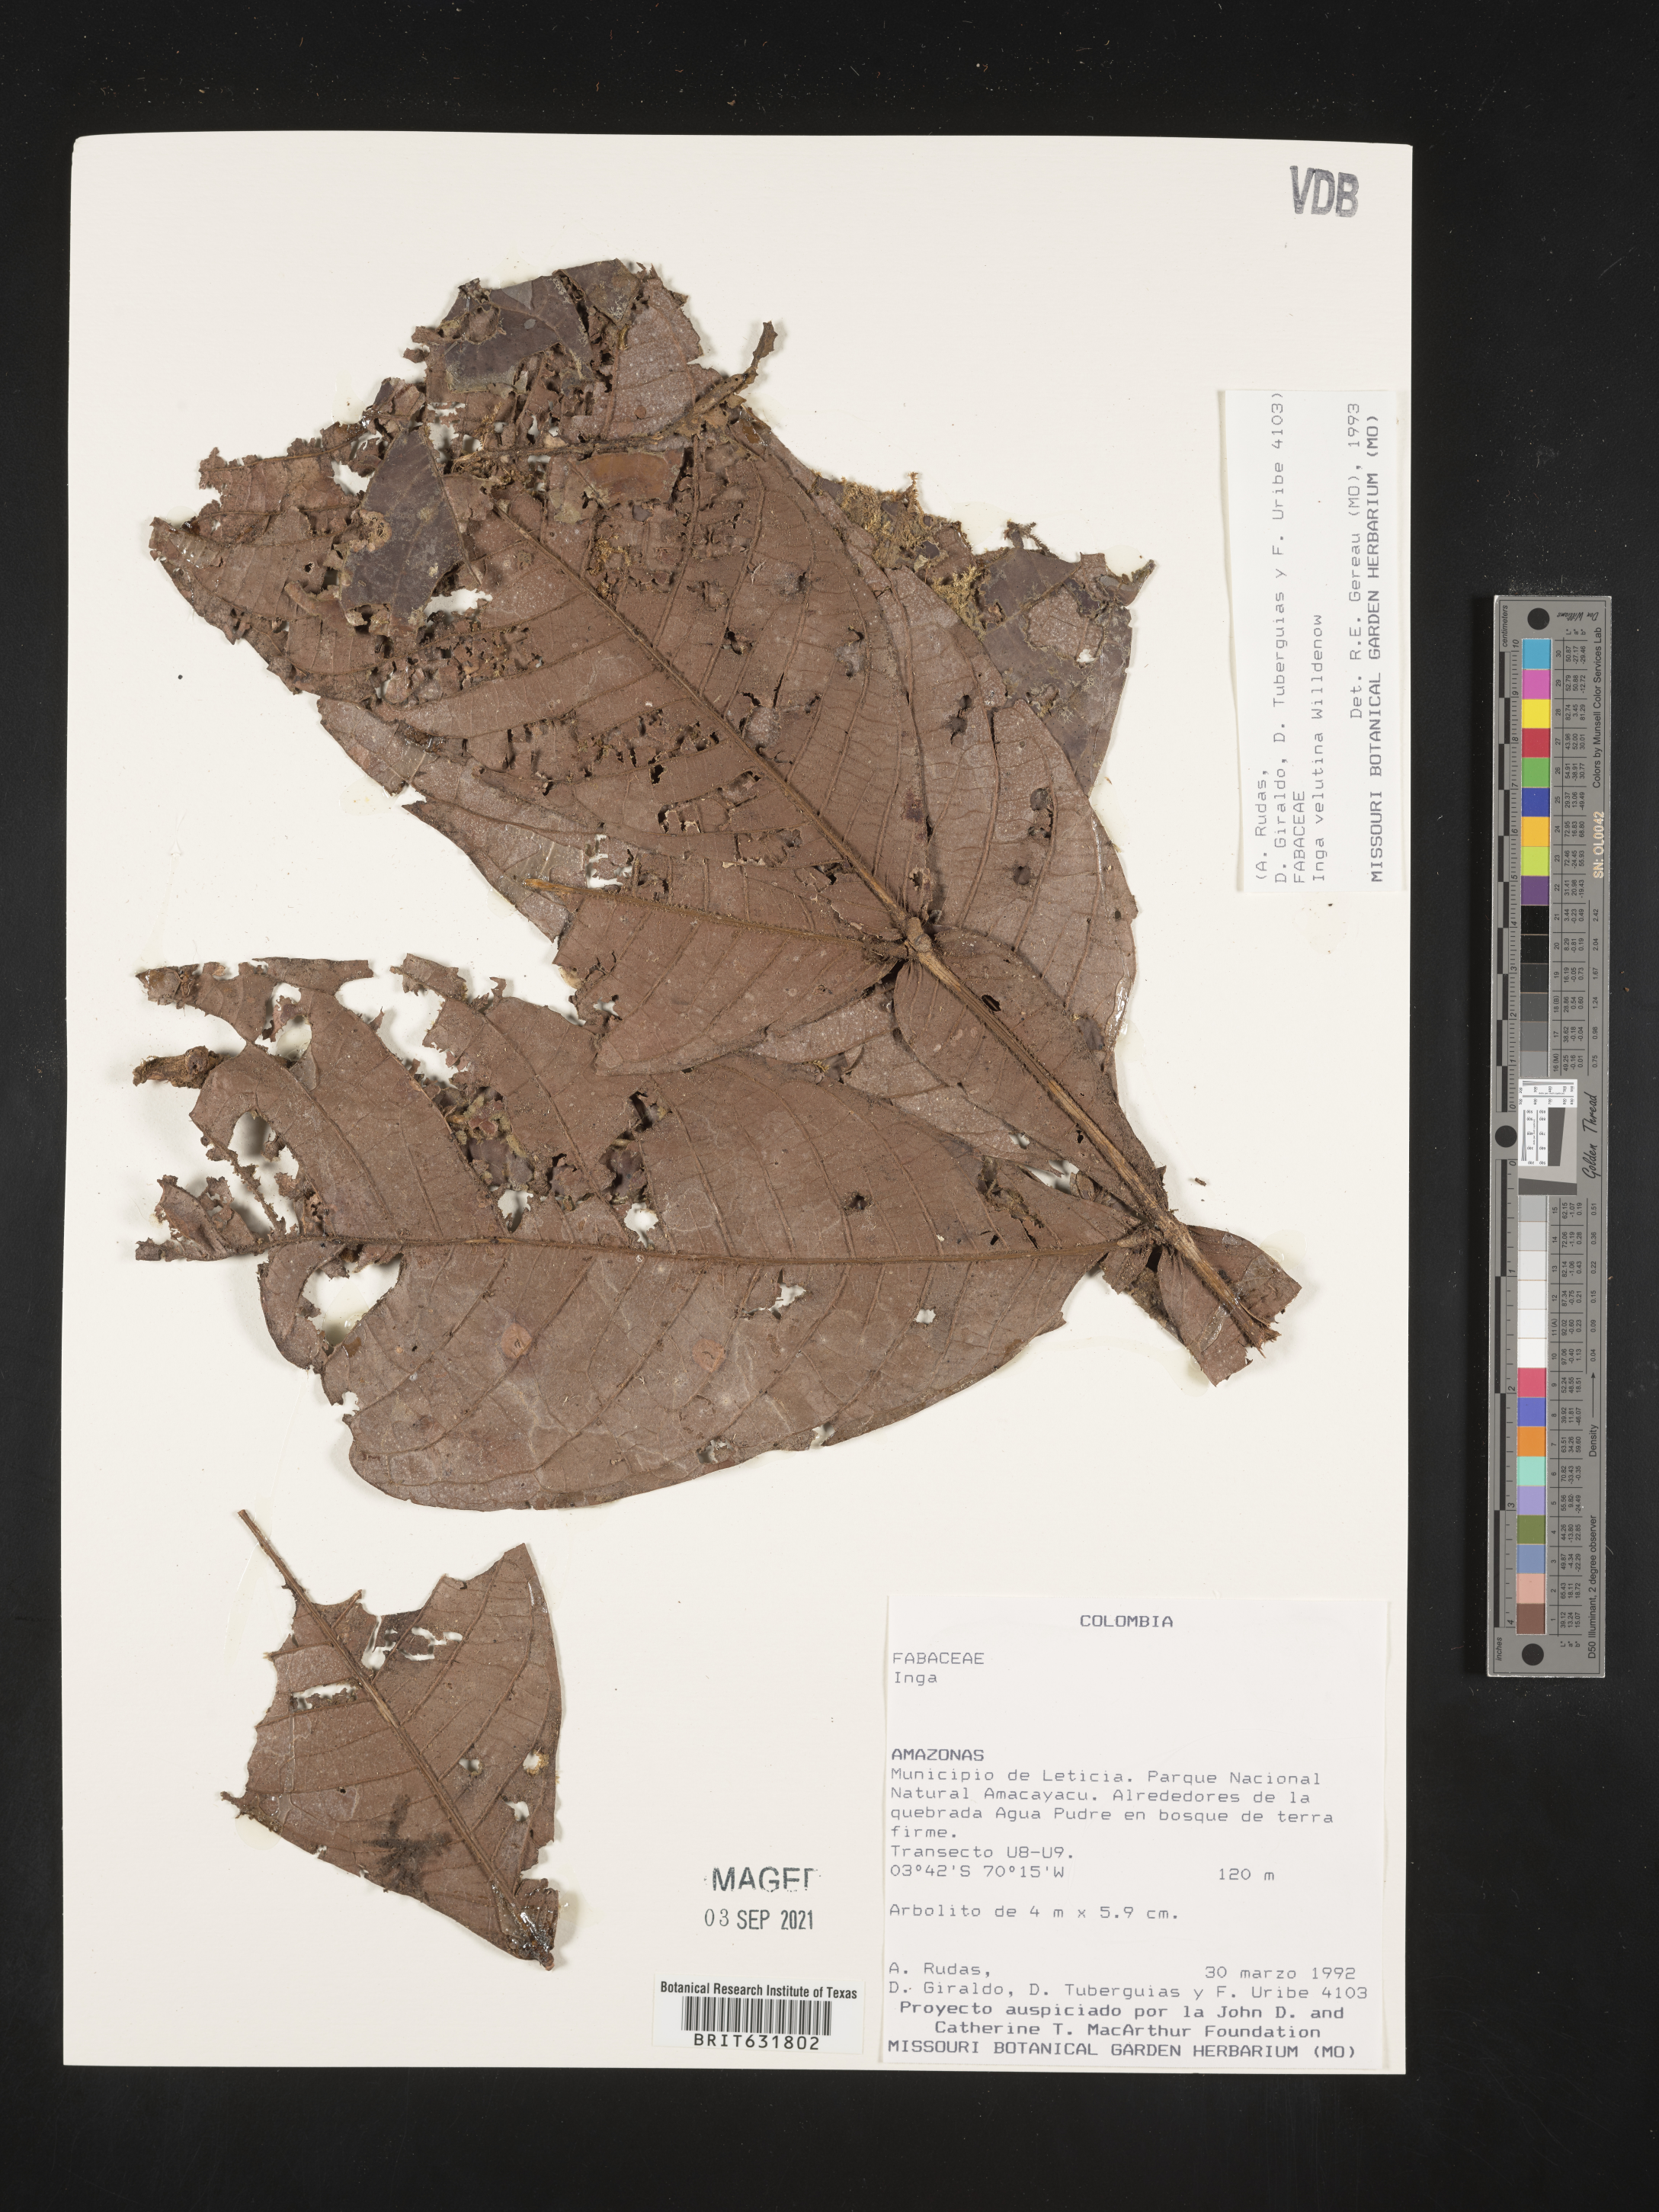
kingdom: Plantae
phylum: Tracheophyta
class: Magnoliopsida
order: Fabales
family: Fabaceae
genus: Inga
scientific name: Inga
